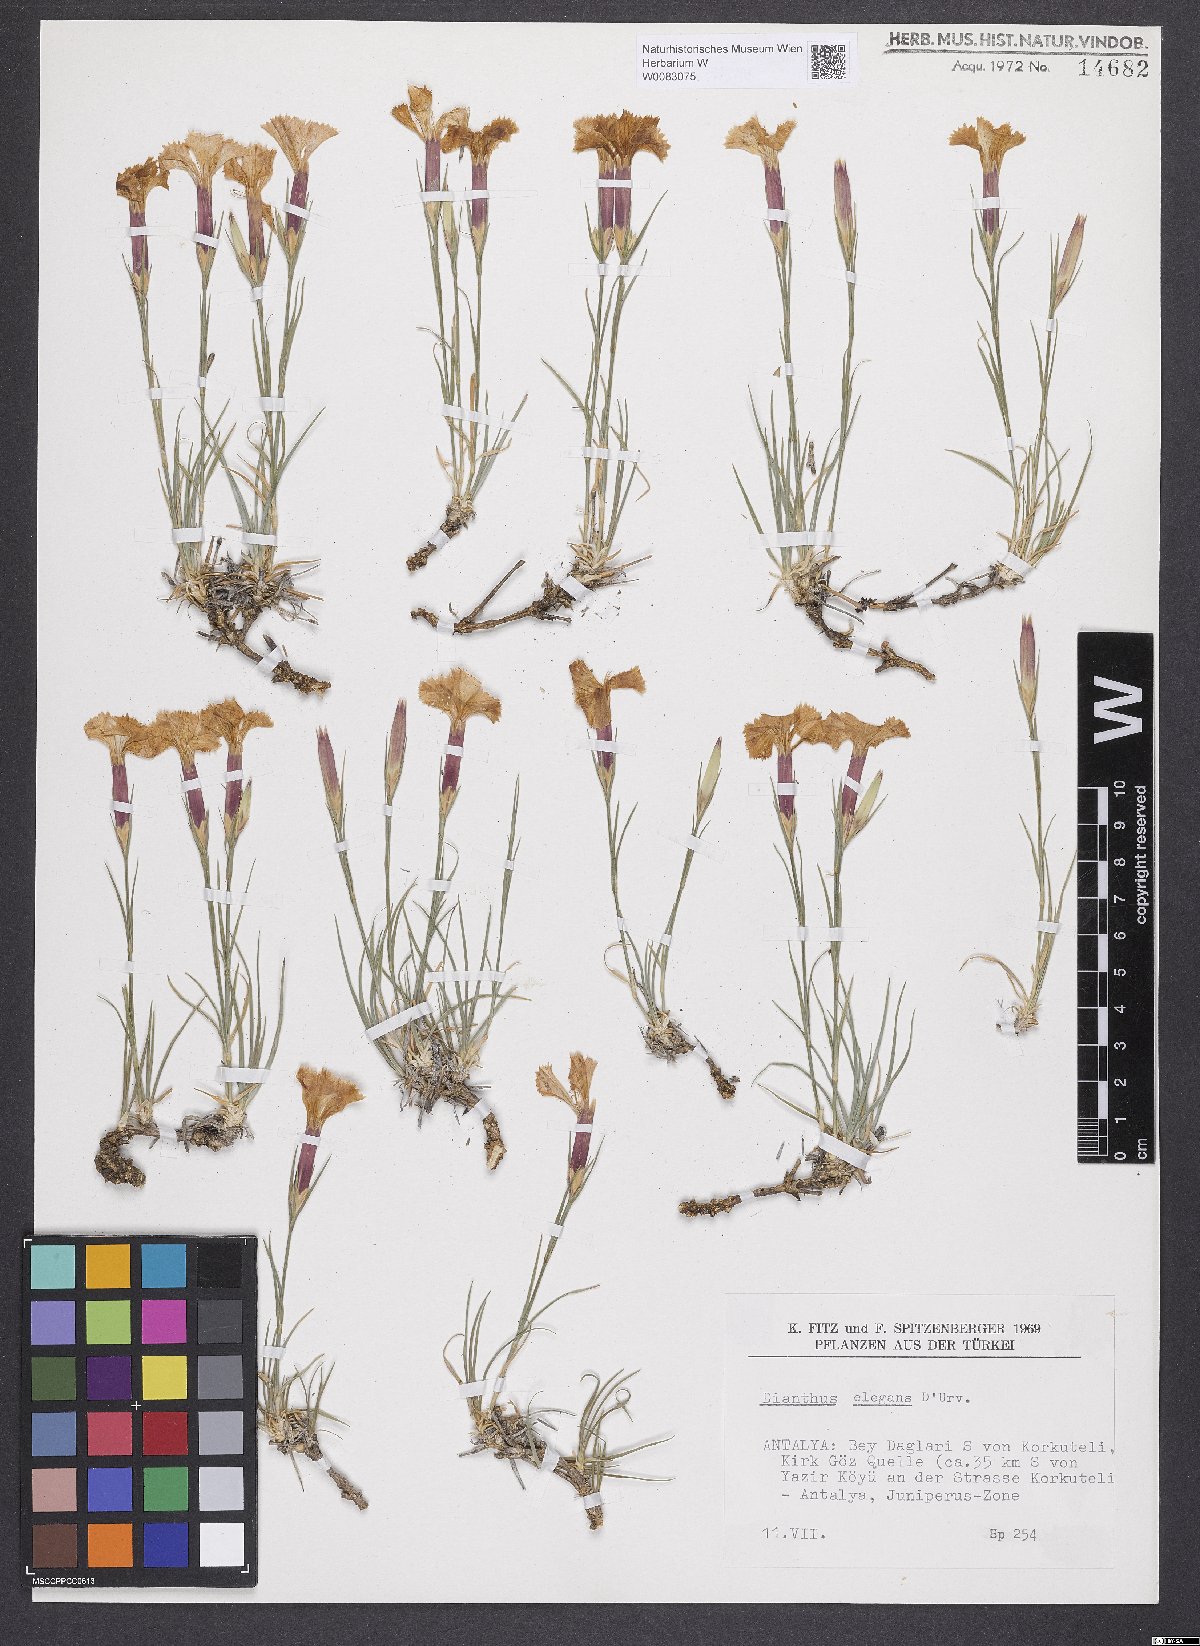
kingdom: Plantae
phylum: Tracheophyta
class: Magnoliopsida
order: Caryophyllales
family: Caryophyllaceae
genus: Dianthus
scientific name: Dianthus elegans
